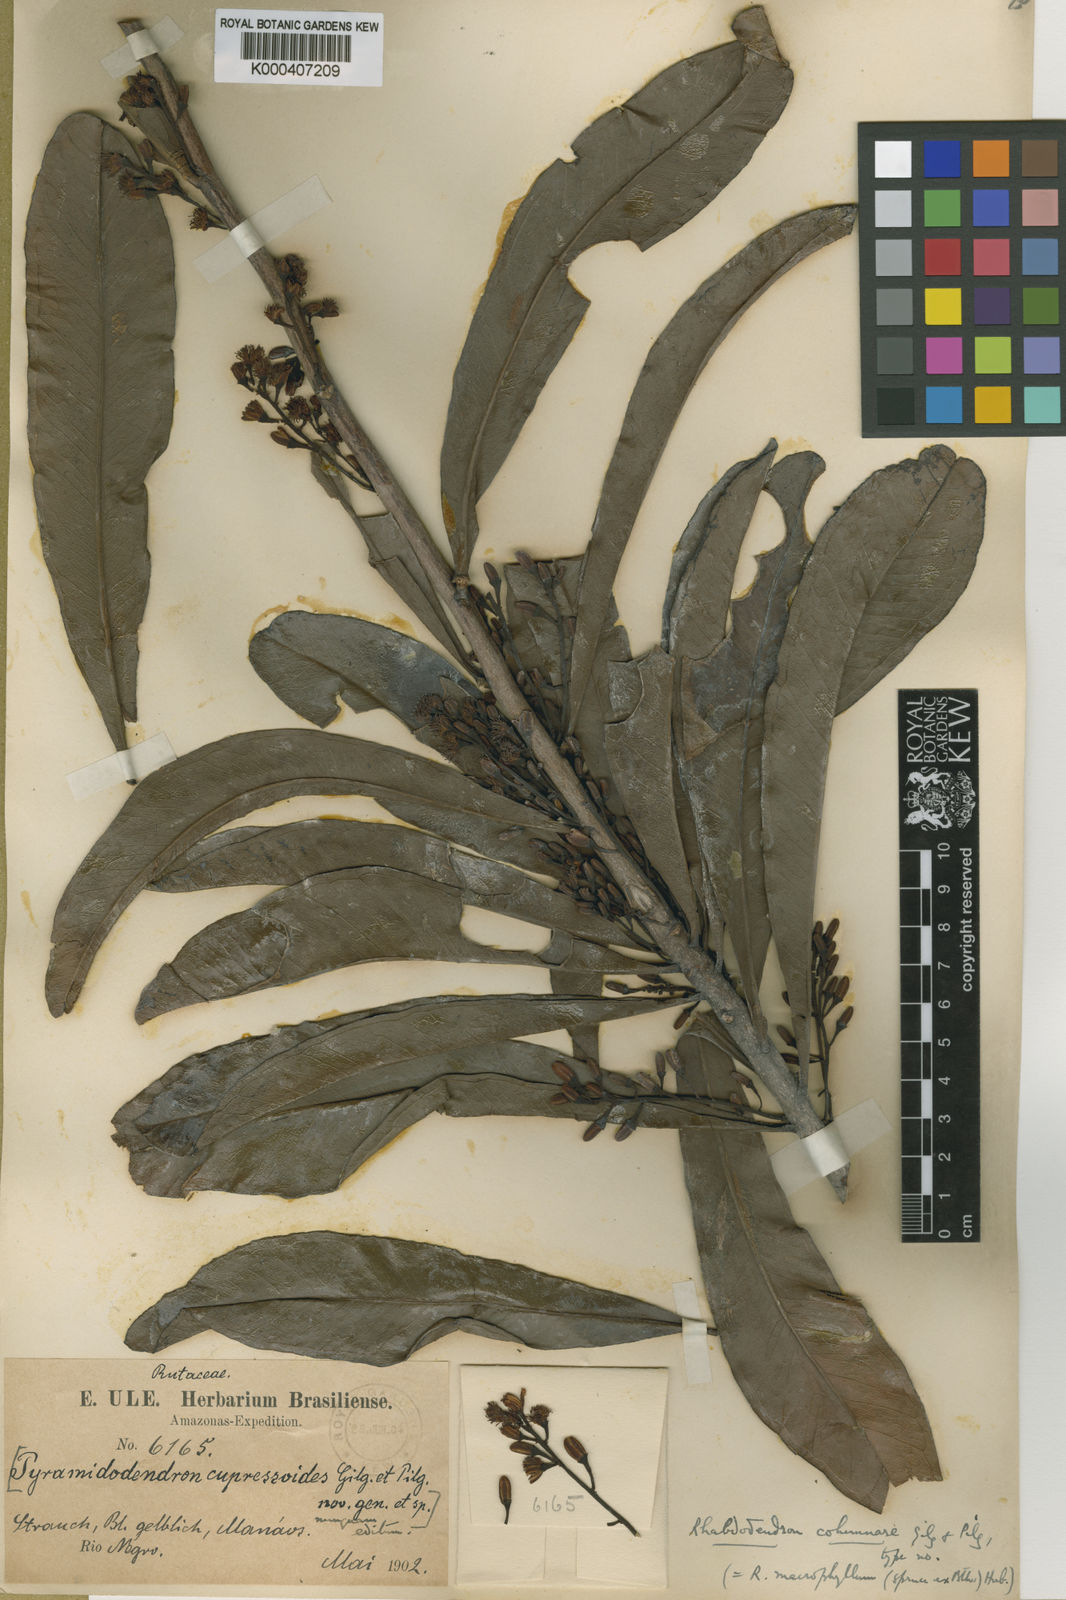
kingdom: Plantae
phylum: Tracheophyta
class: Magnoliopsida
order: Caryophyllales
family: Rhabdodendraceae
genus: Rhabdodendron
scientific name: Rhabdodendron macrophyllum
